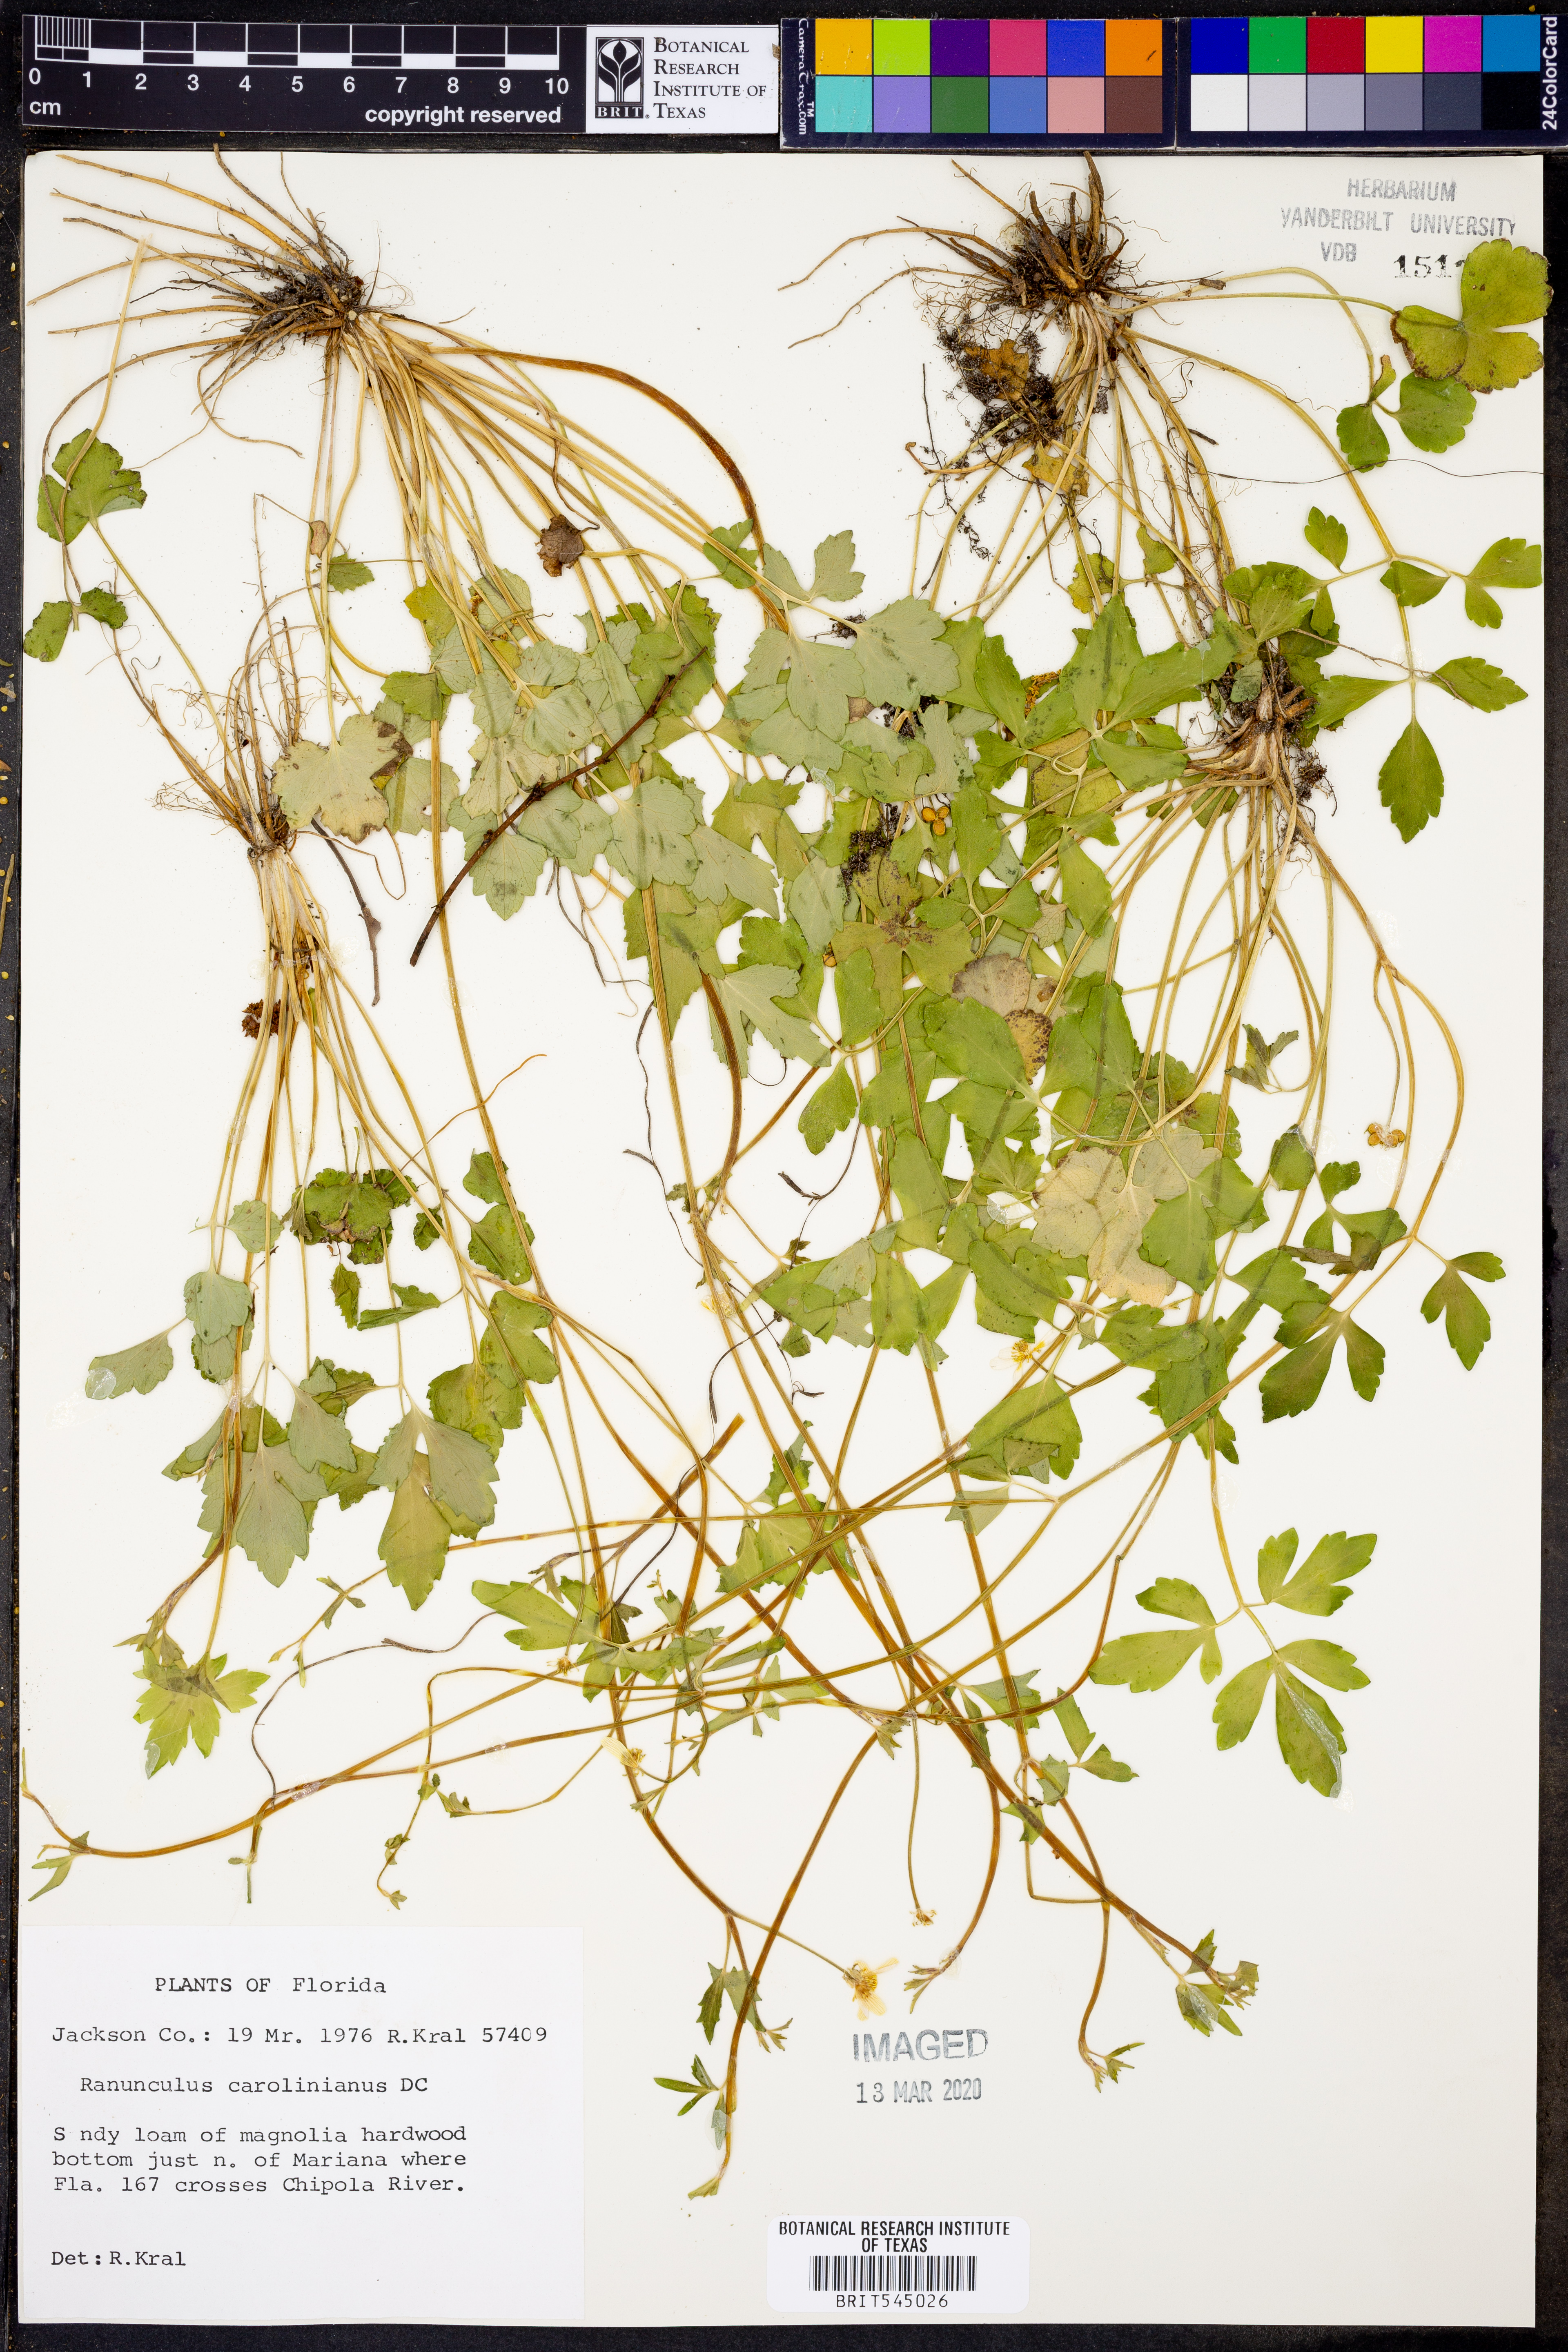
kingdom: Plantae
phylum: Tracheophyta
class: Magnoliopsida
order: Ranunculales
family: Ranunculaceae
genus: Ranunculus
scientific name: Ranunculus hispidus
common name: Bristly buttercup
